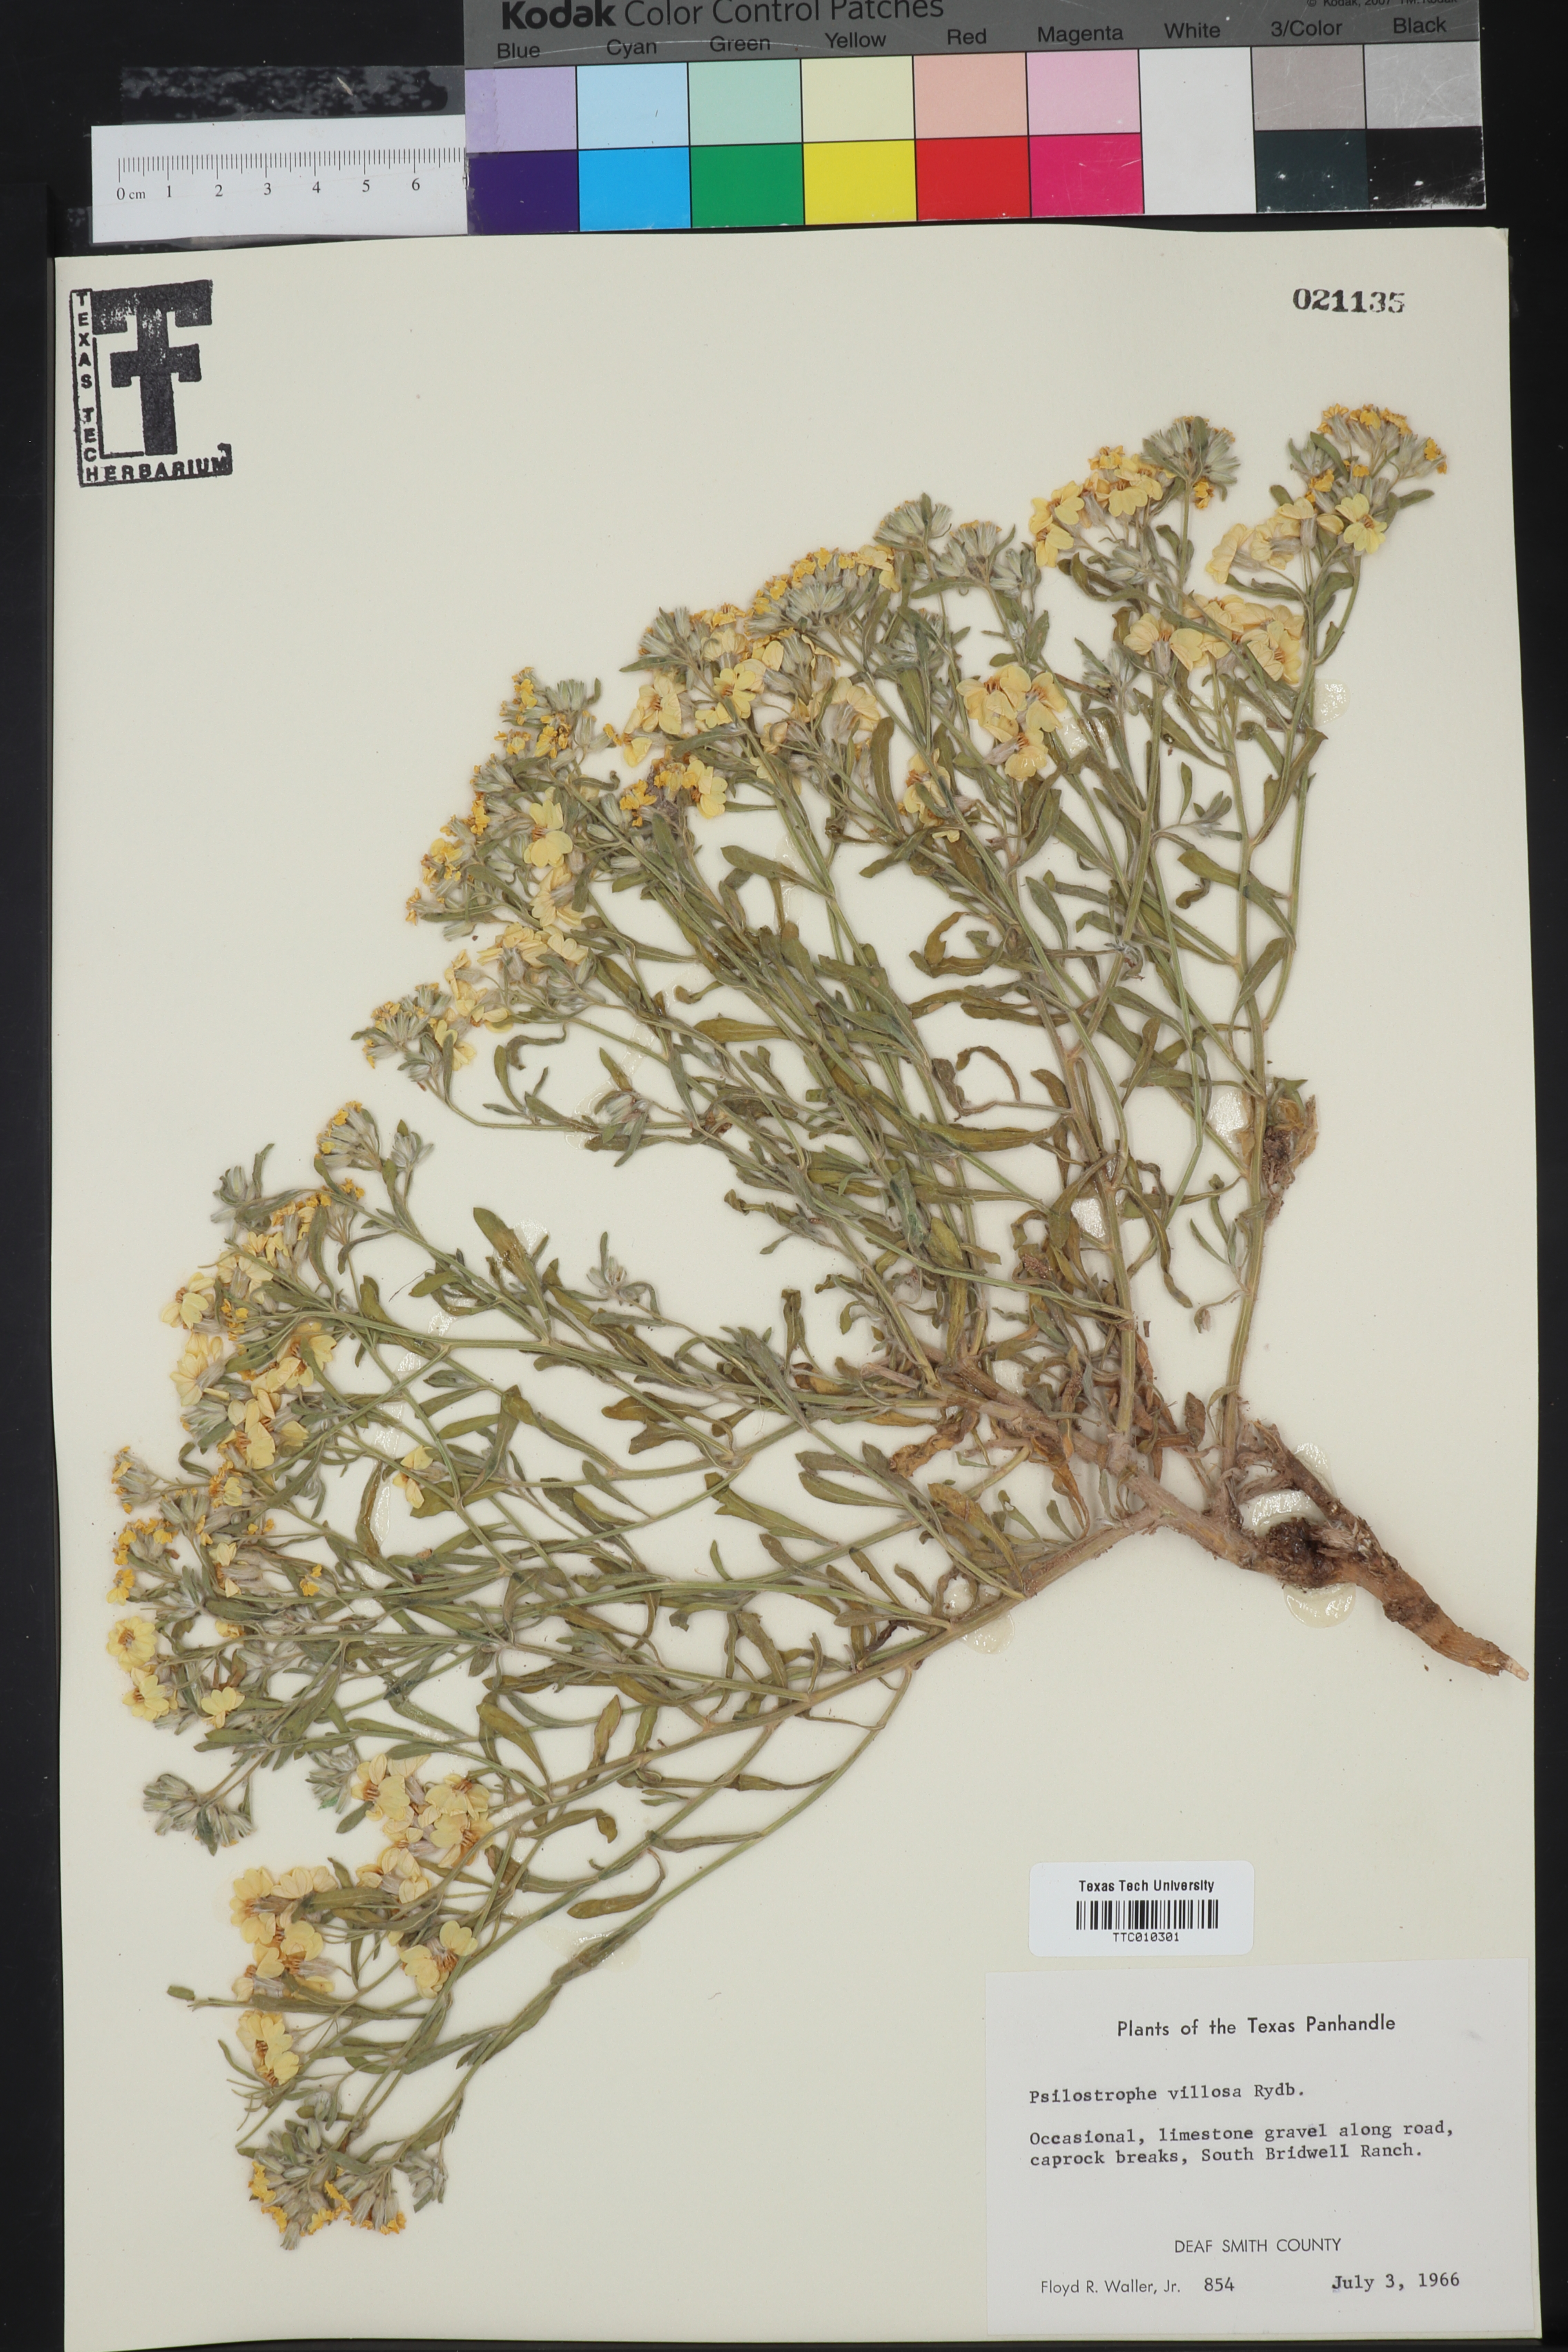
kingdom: Plantae
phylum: Tracheophyta
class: Magnoliopsida
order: Asterales
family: Asteraceae
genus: Psilostrophe
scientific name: Psilostrophe villosa
